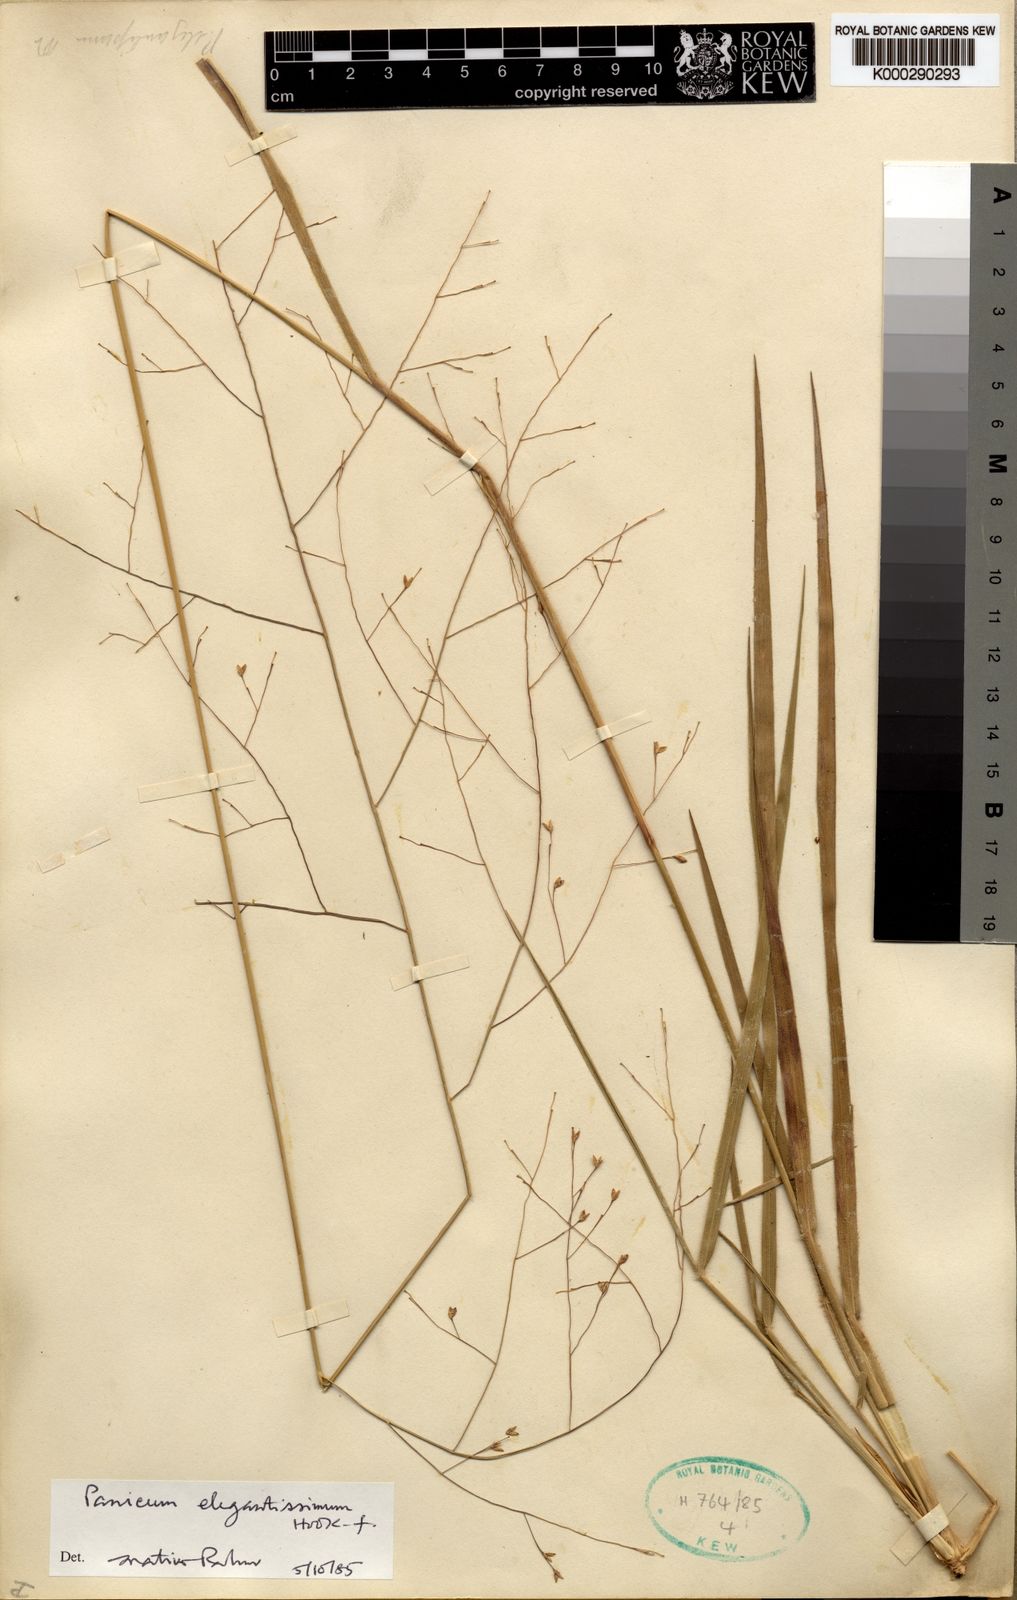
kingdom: Plantae
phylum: Tracheophyta
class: Liliopsida
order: Poales
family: Poaceae
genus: Panicum
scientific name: Panicum curviflorum
